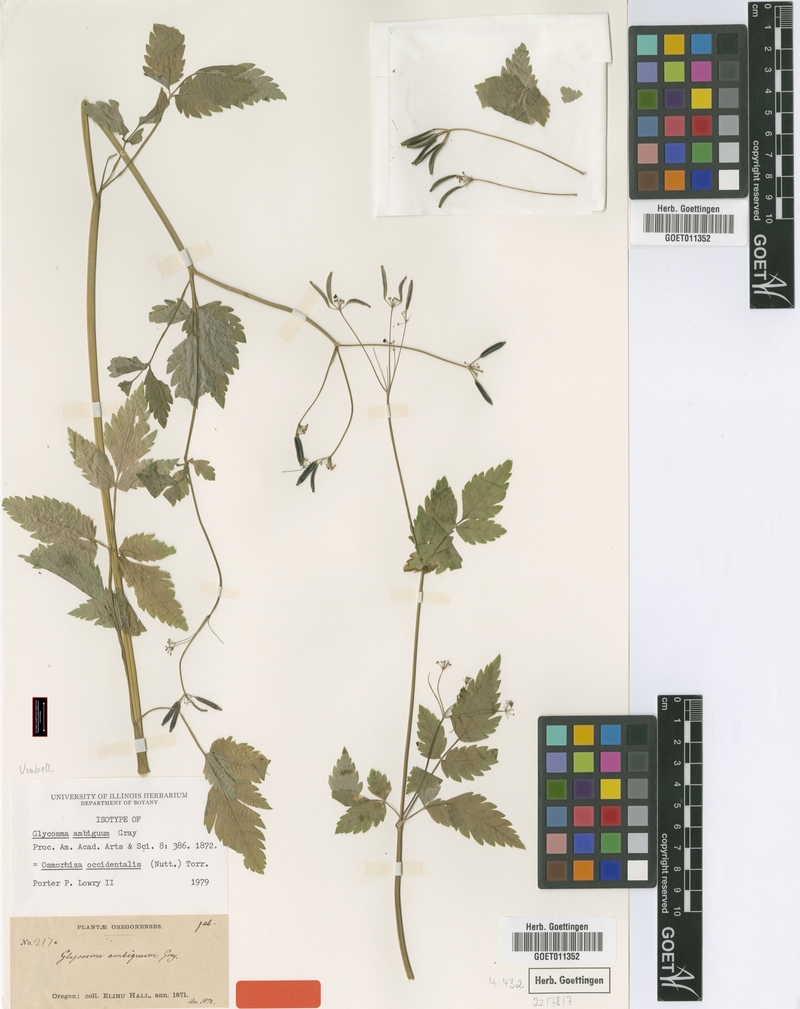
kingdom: Plantae
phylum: Tracheophyta
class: Magnoliopsida
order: Apiales
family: Apiaceae
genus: Osmorhiza
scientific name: Osmorhiza occidentalis
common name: Western sweet cicely
